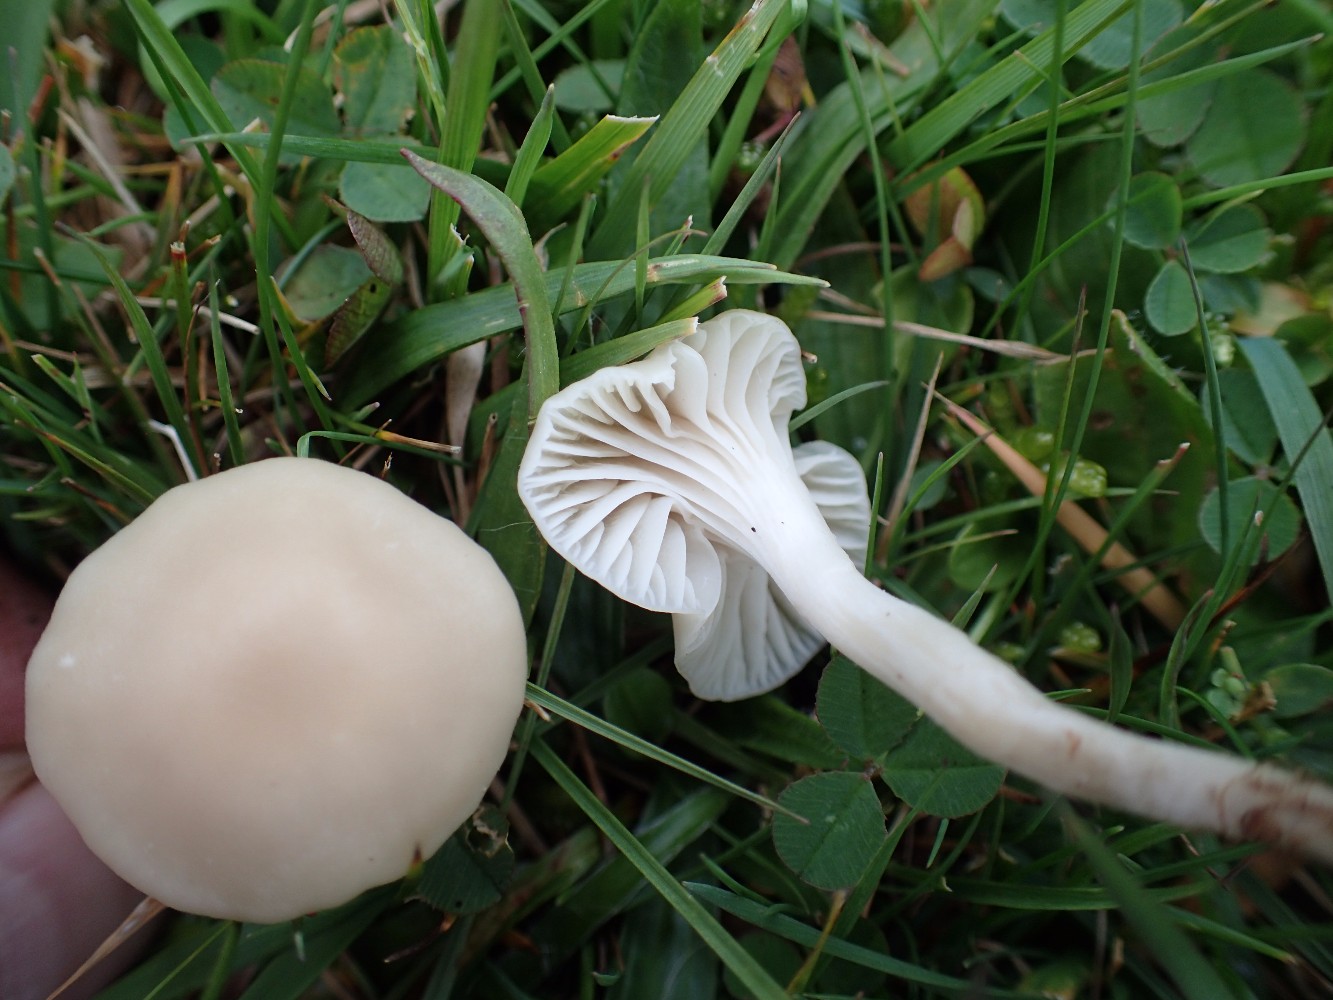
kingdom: Fungi
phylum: Basidiomycota
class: Agaricomycetes
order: Agaricales
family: Hygrophoraceae
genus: Cuphophyllus
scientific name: Cuphophyllus virgineus
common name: isabella-vokshat
